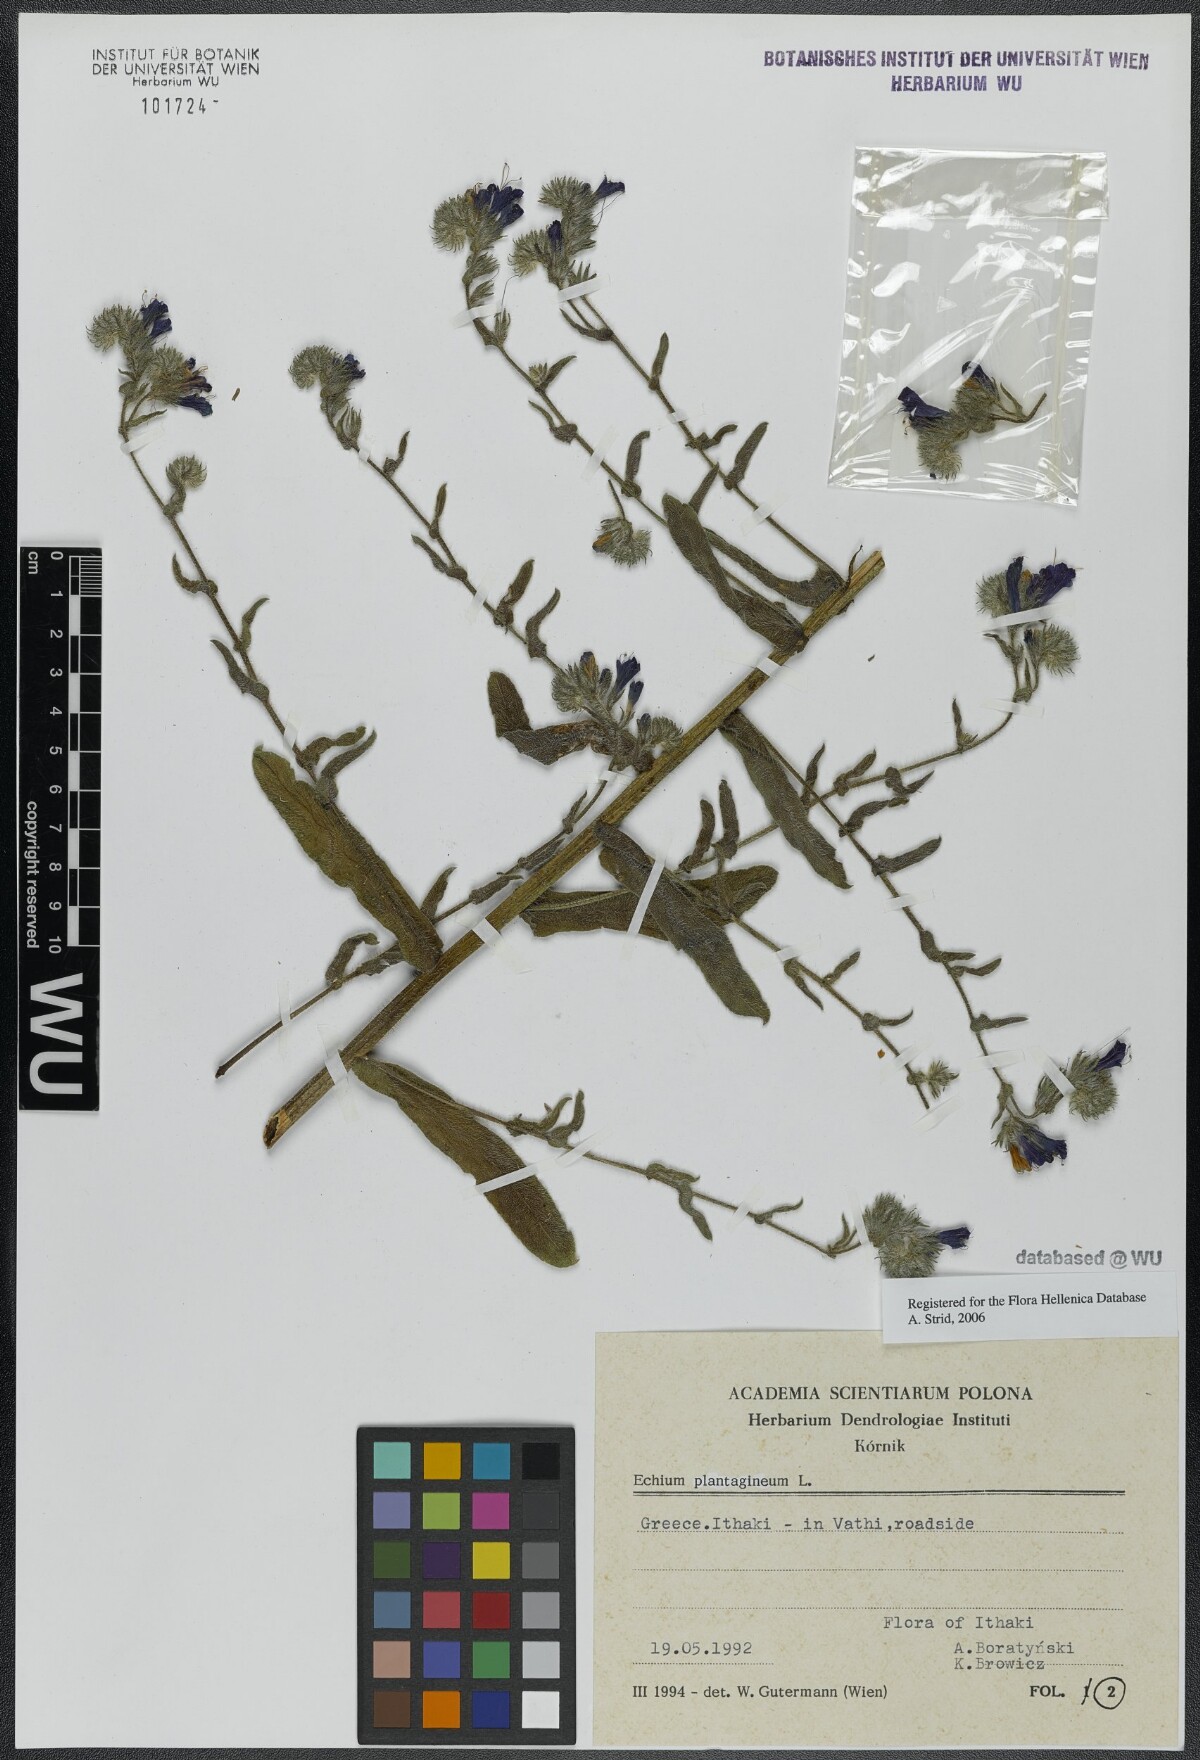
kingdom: Plantae
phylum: Tracheophyta
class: Magnoliopsida
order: Boraginales
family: Boraginaceae
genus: Echium
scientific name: Echium plantagineum
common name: Purple viper's-bugloss
